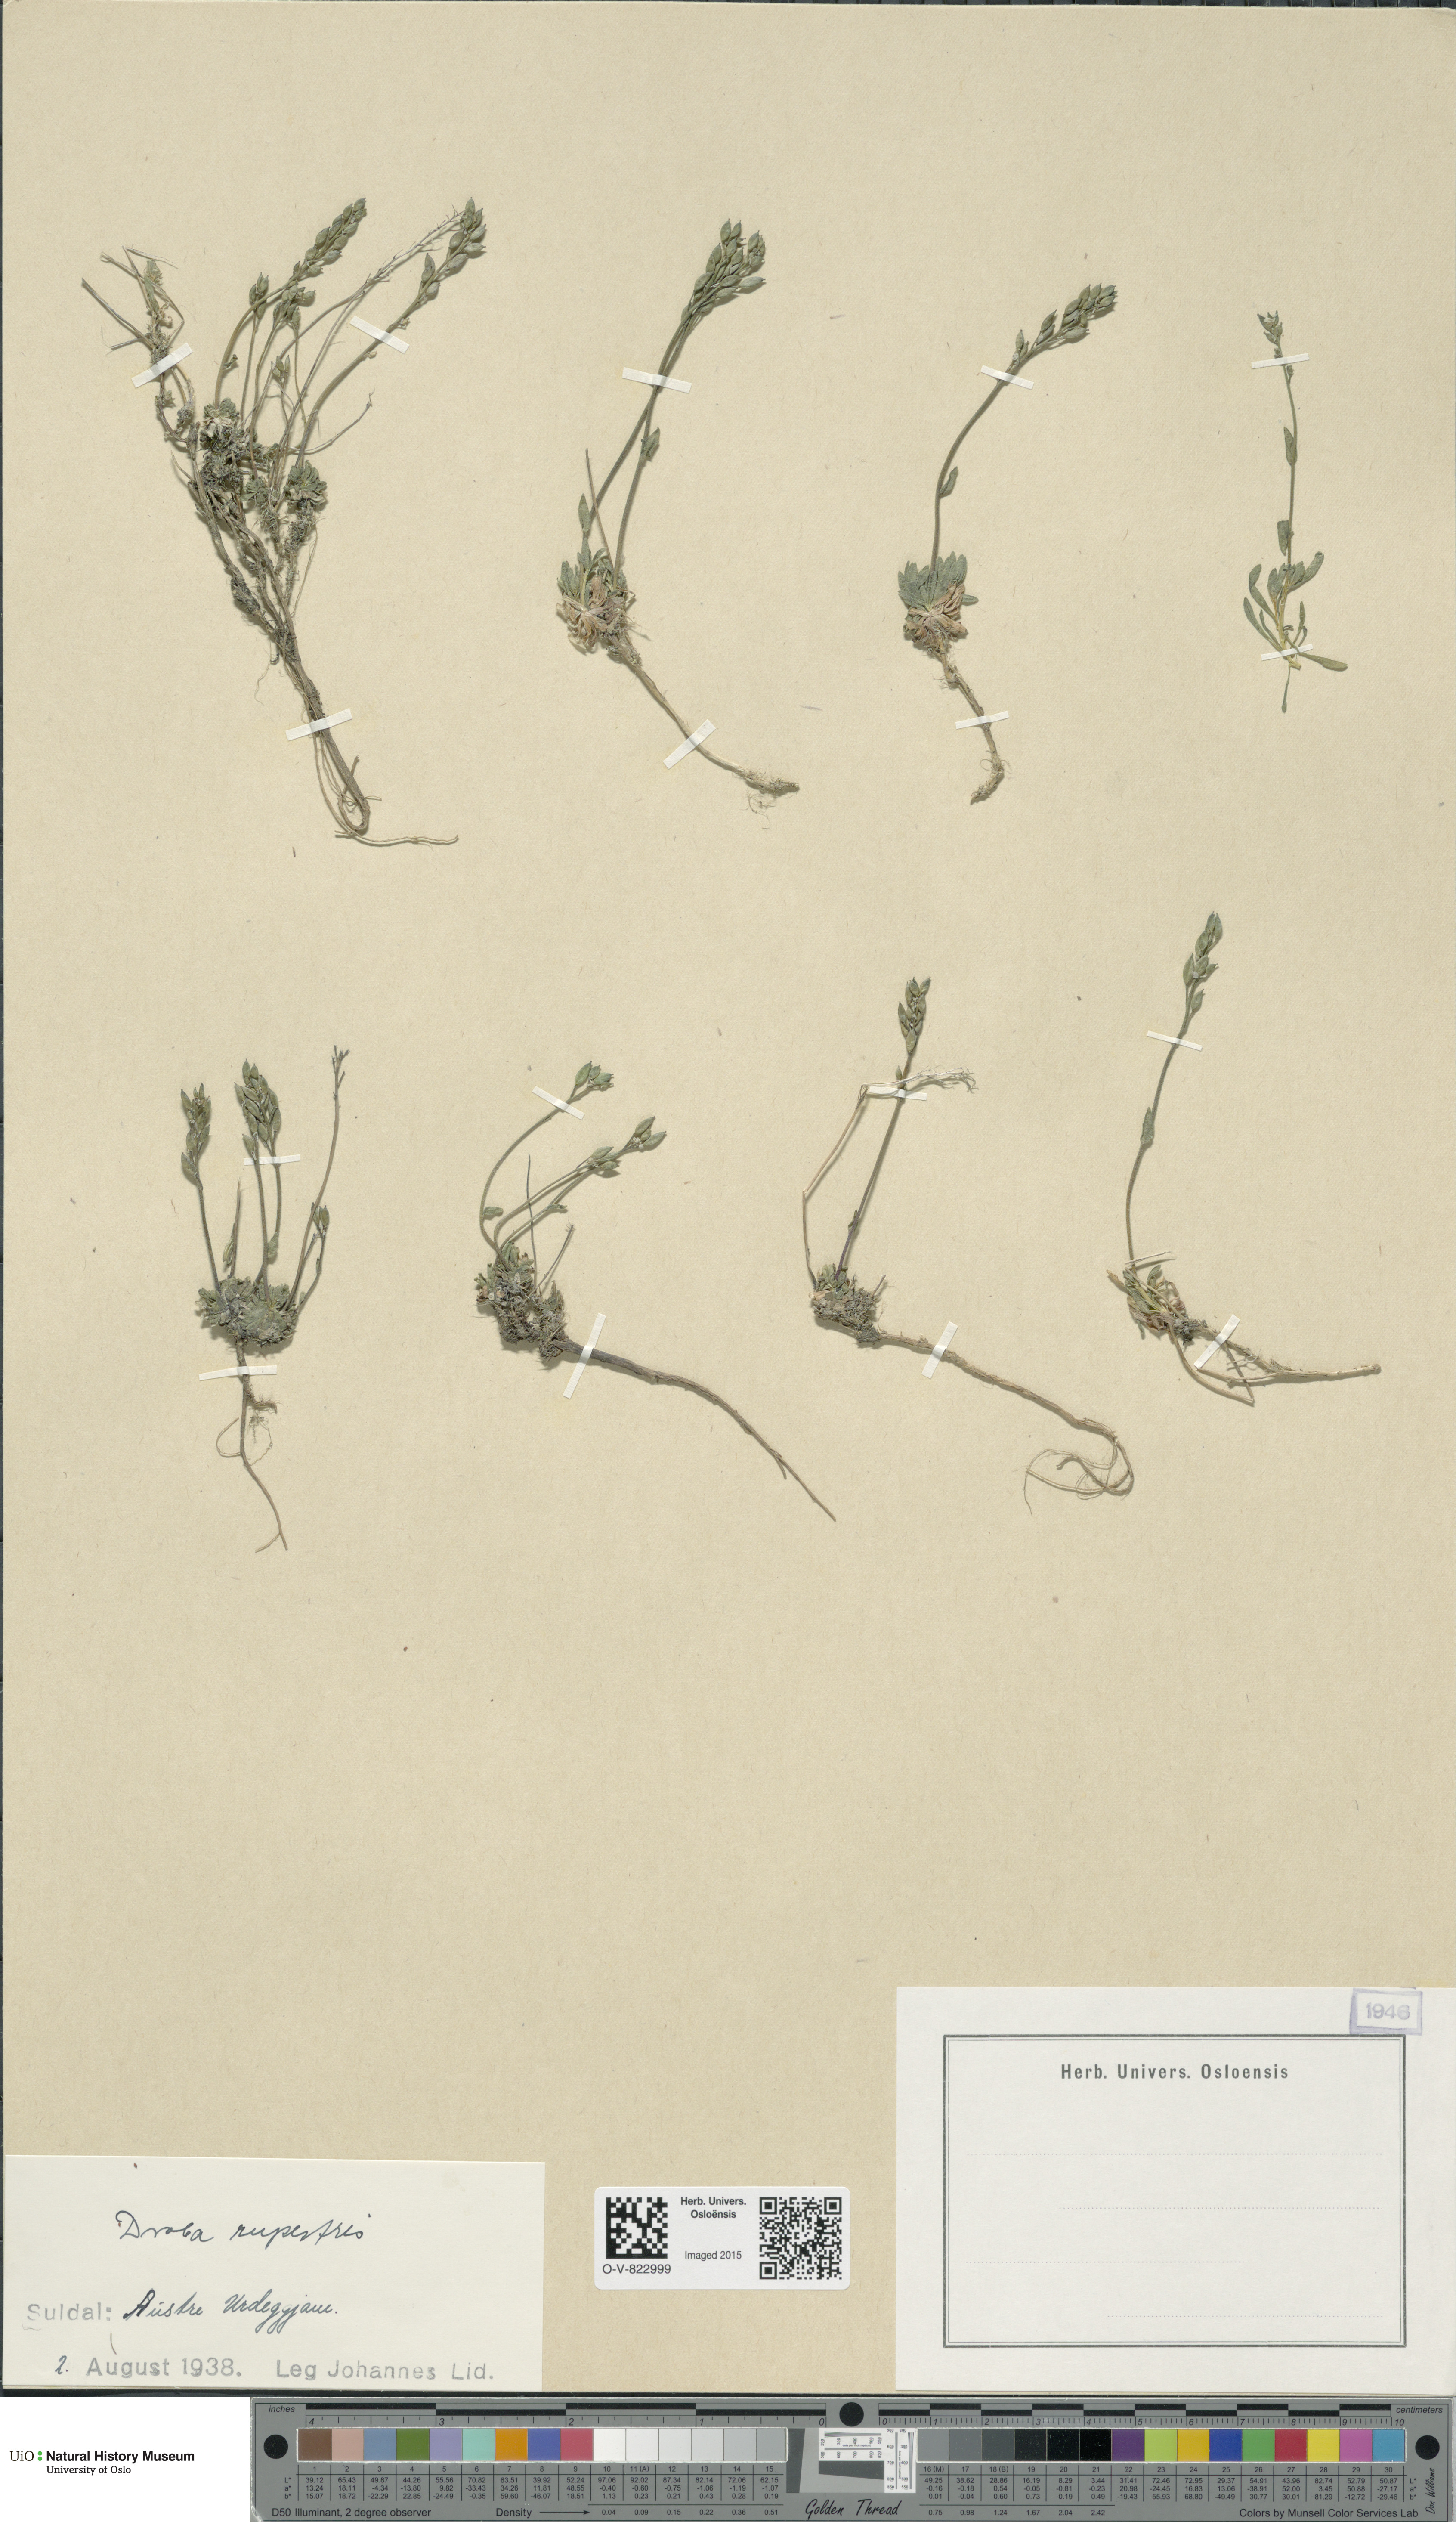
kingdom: Plantae
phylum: Tracheophyta
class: Magnoliopsida
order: Brassicales
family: Brassicaceae
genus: Draba
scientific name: Draba norvegica
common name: Rock whitlowgrass
